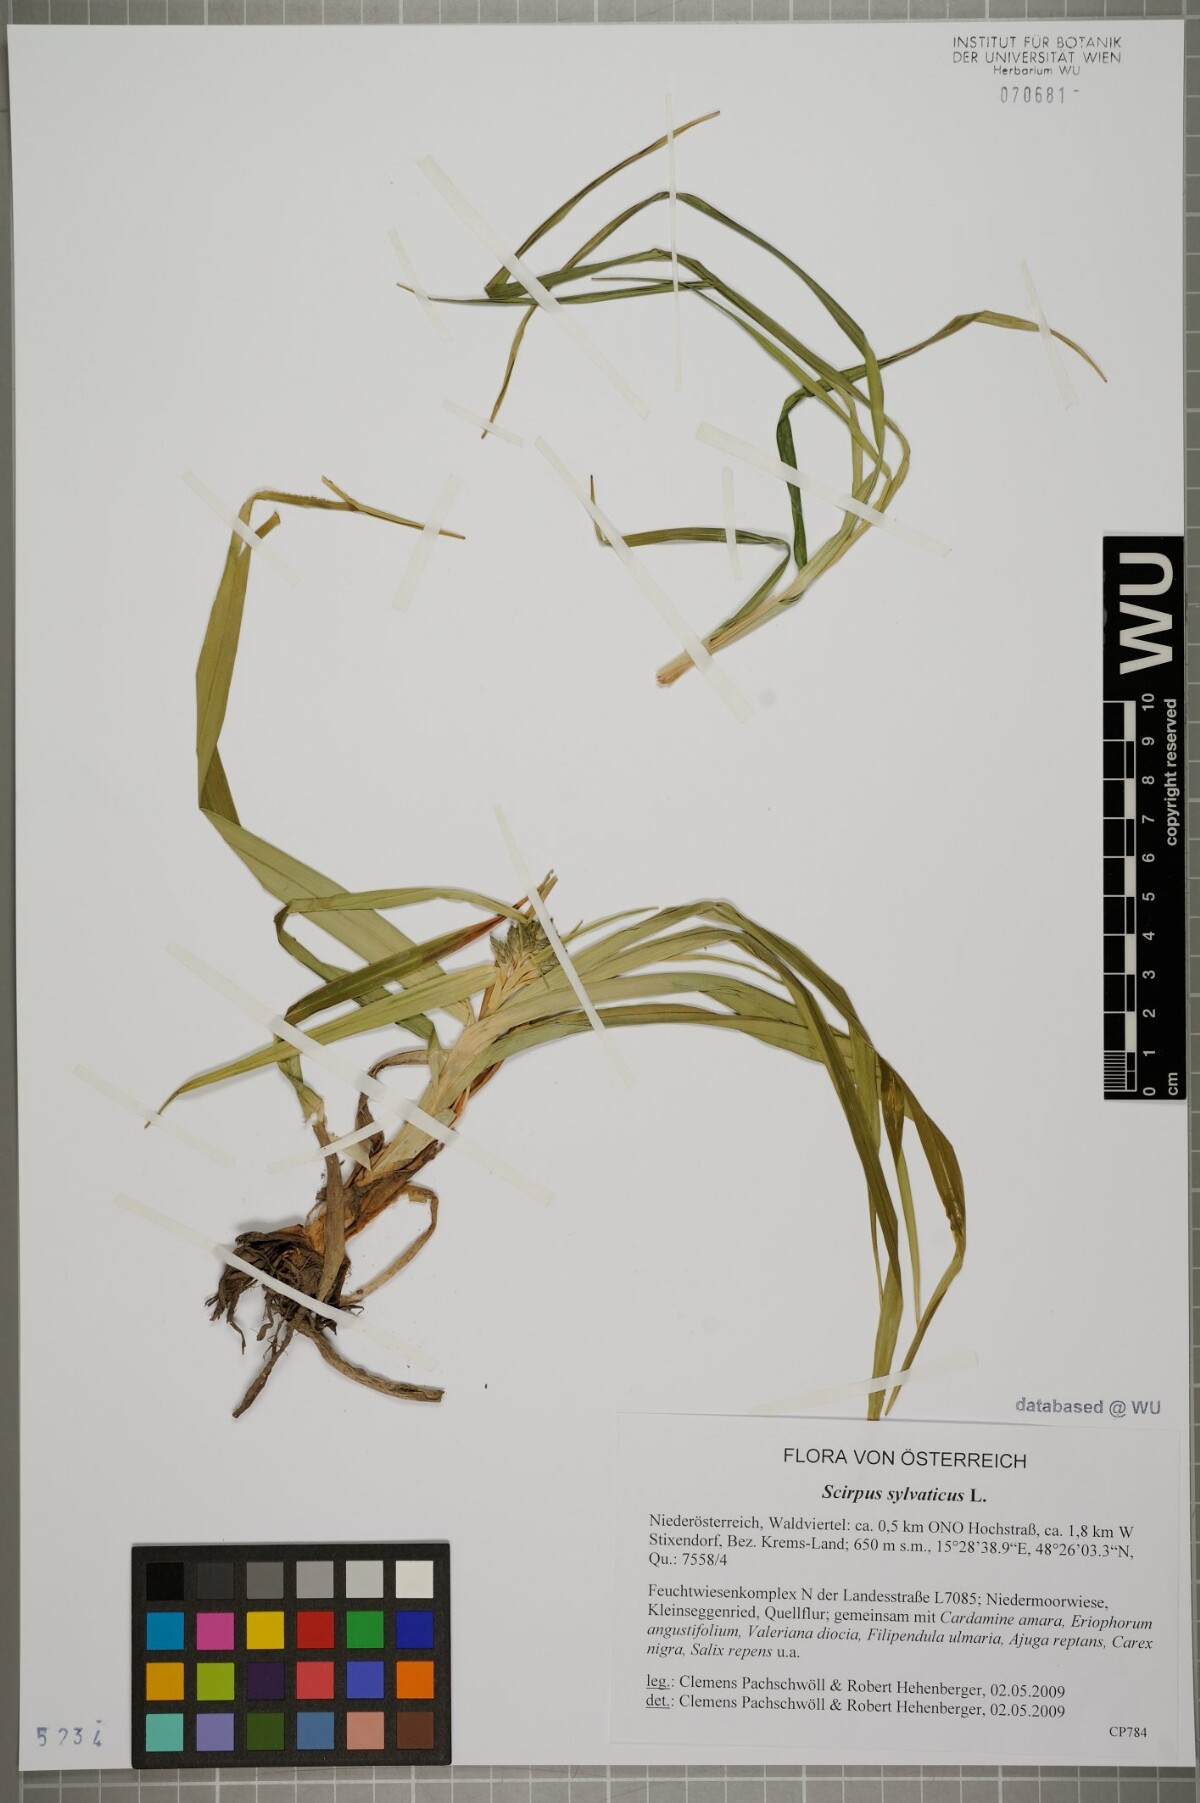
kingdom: Plantae
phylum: Tracheophyta
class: Liliopsida
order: Poales
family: Cyperaceae
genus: Scirpus
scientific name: Scirpus sylvaticus
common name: Wood club-rush
